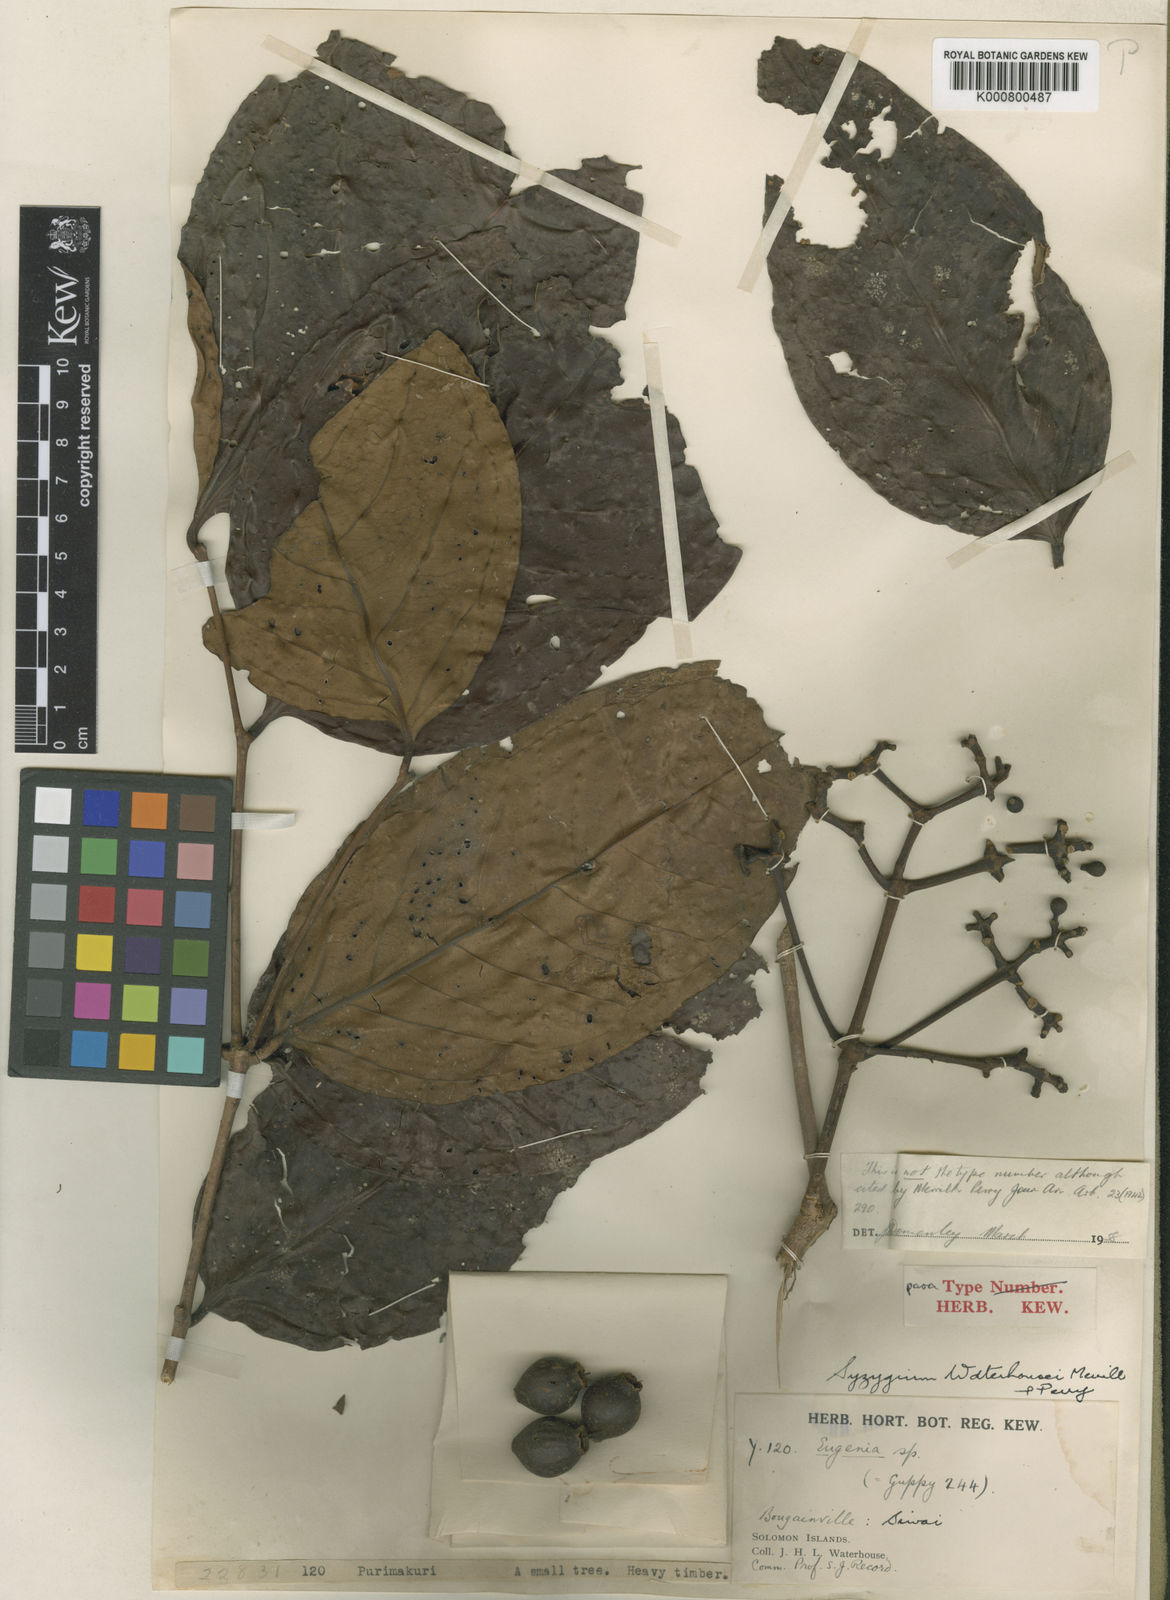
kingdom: Plantae
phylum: Tracheophyta
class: Magnoliopsida
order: Myrtales
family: Myrtaceae
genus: Syzygium
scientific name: Syzygium waterhousei
